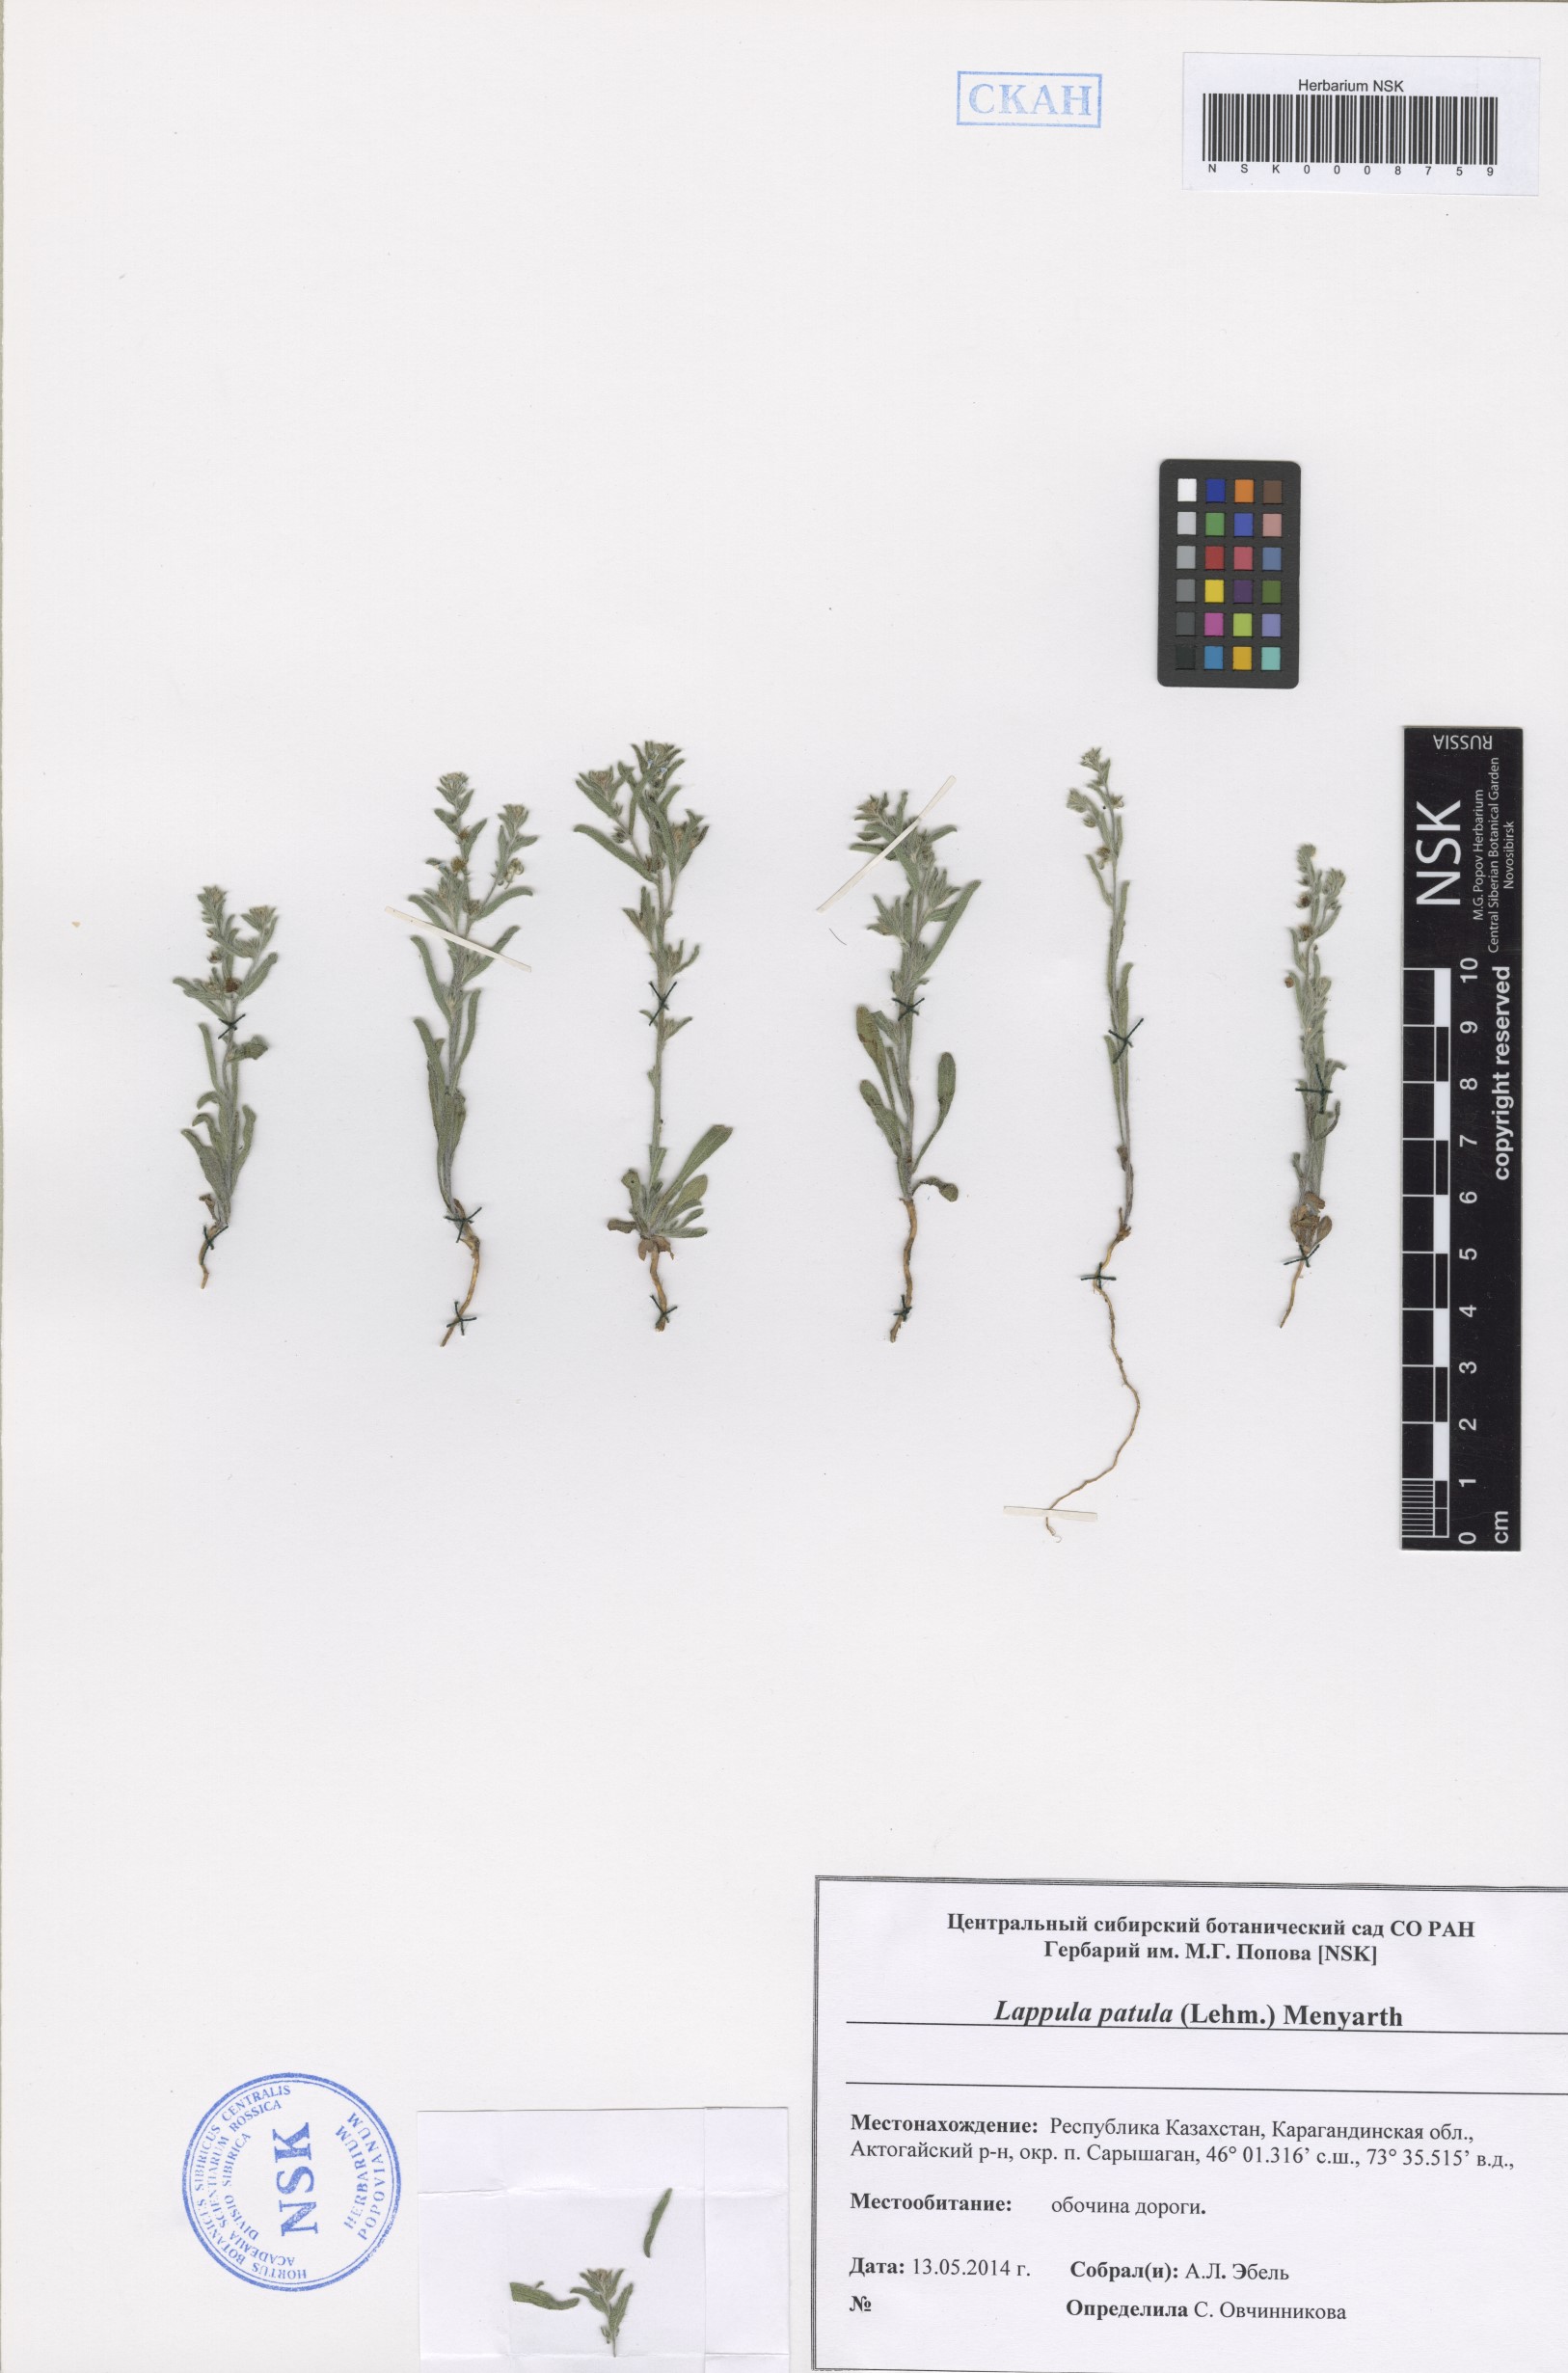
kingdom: Plantae
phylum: Tracheophyta
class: Magnoliopsida
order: Boraginales
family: Boraginaceae
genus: Lappula
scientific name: Lappula patula
